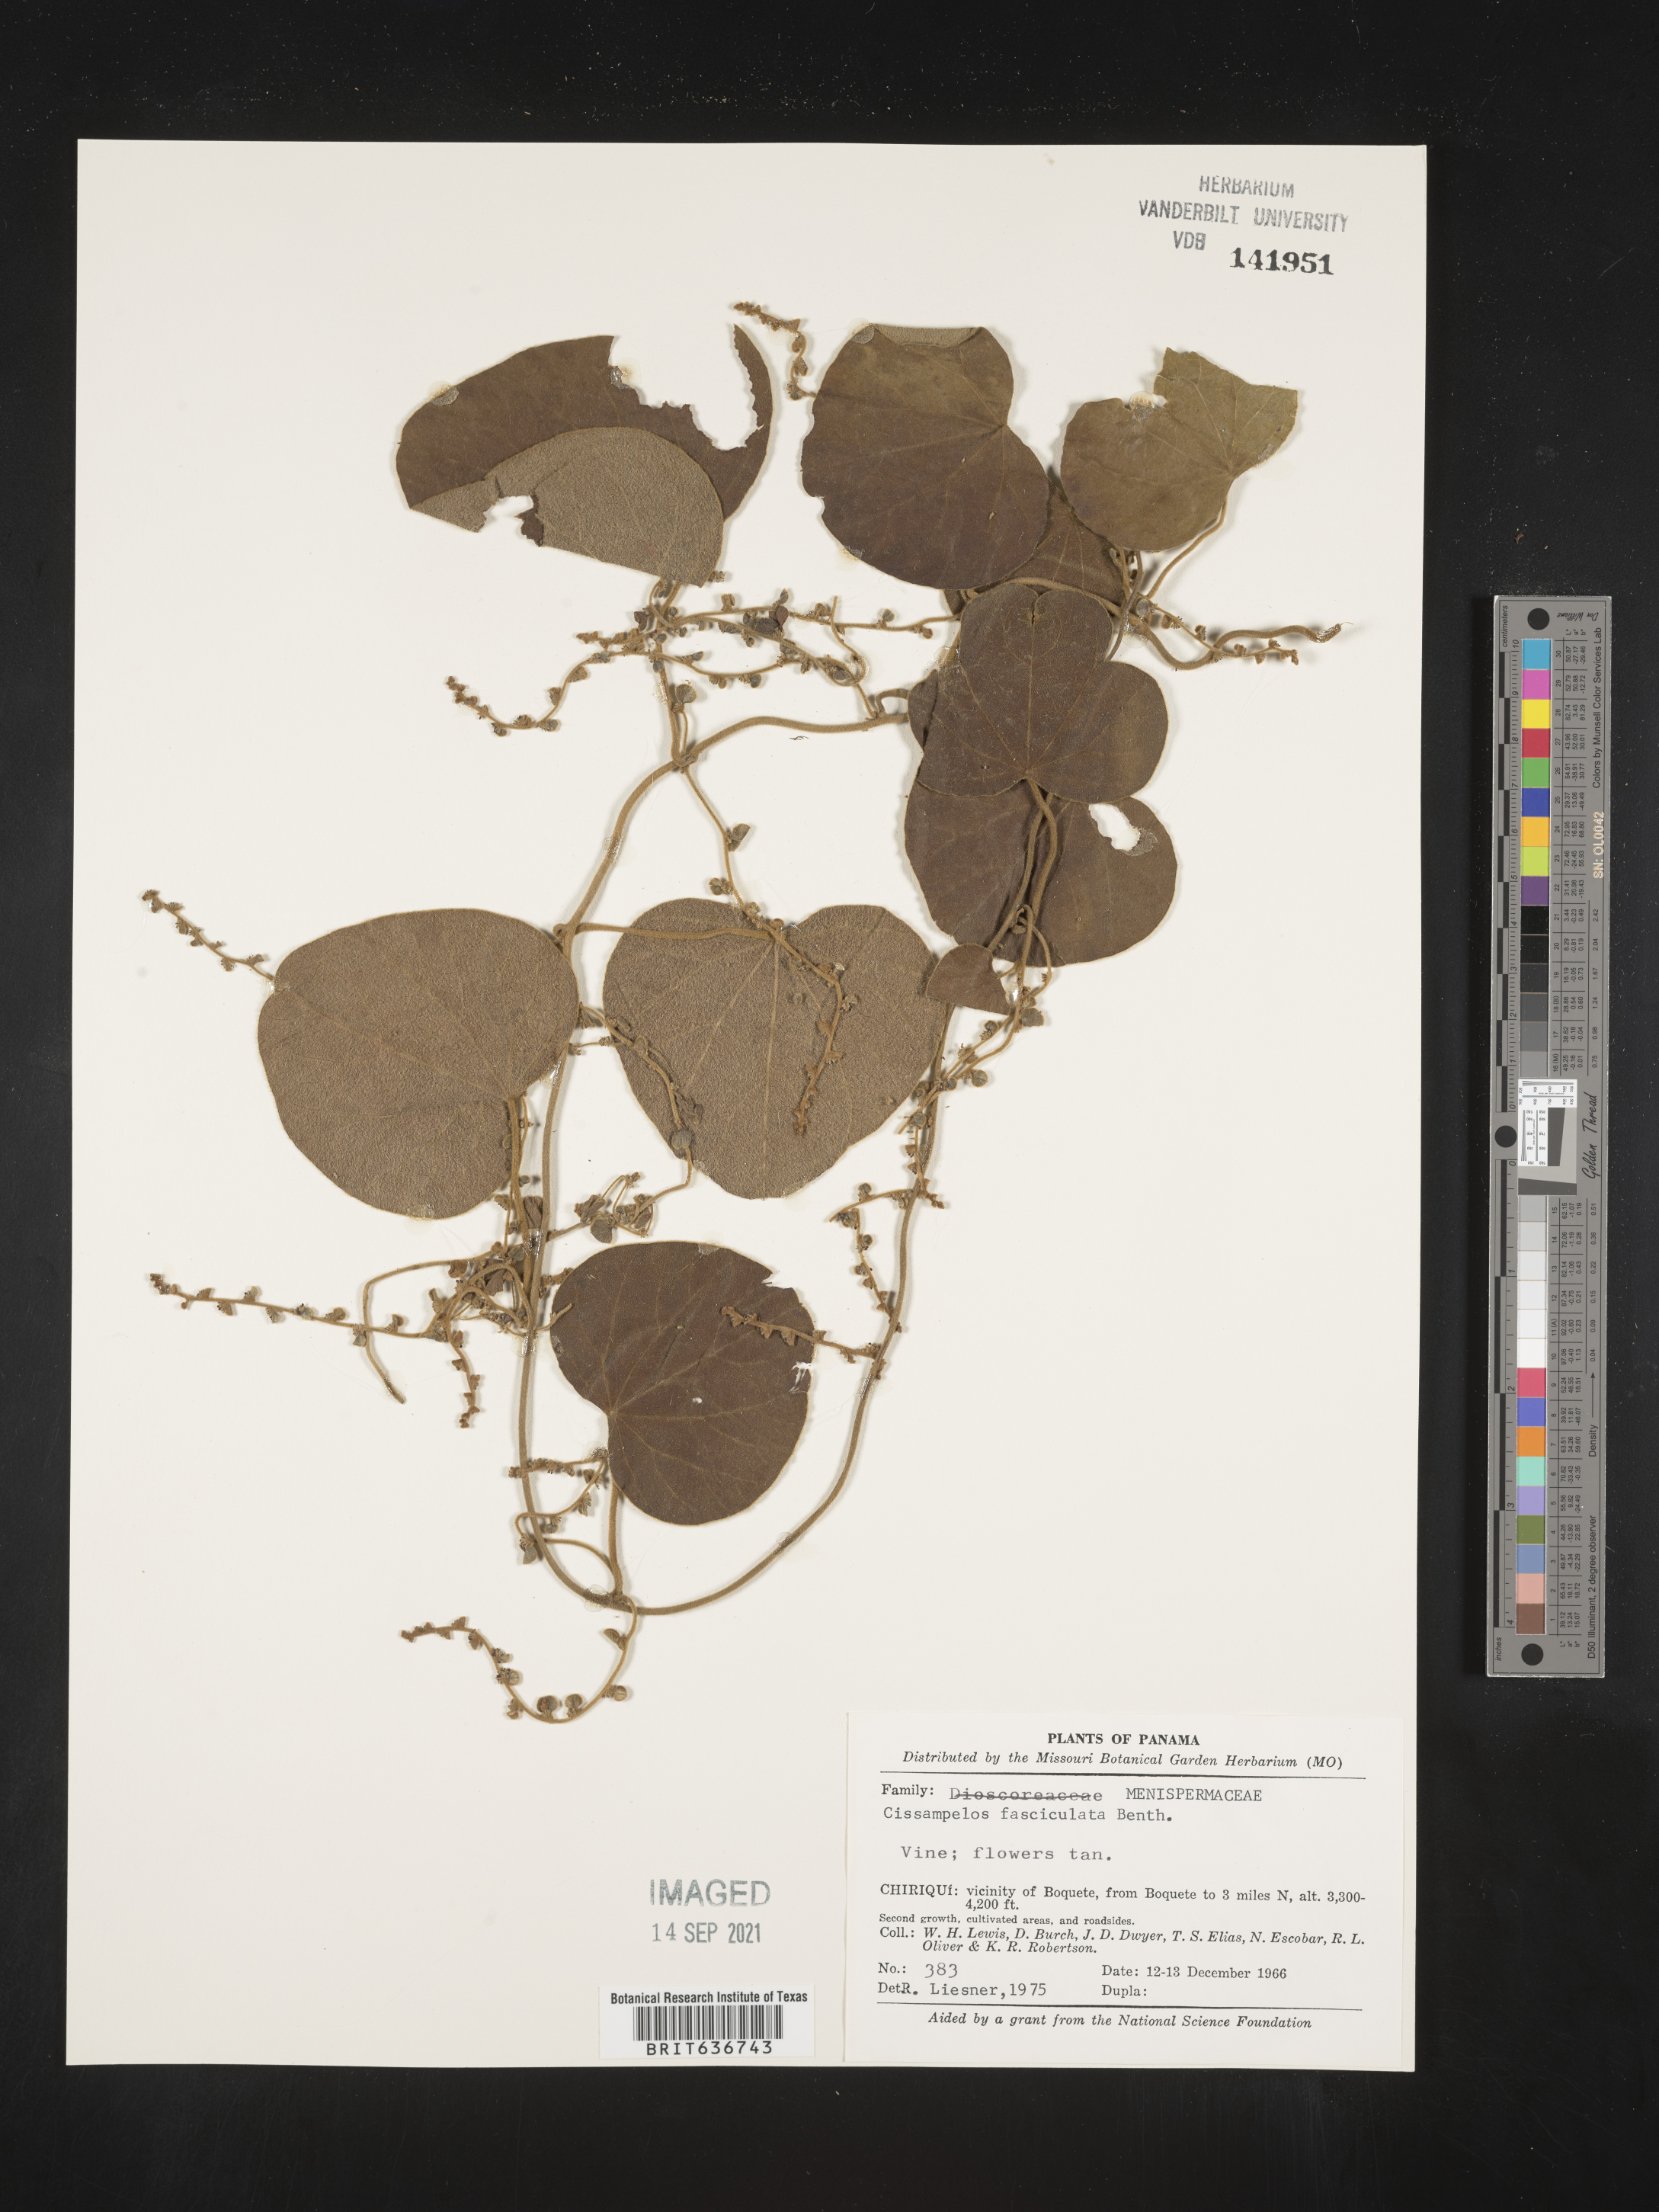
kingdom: Plantae
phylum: Tracheophyta
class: Magnoliopsida
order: Ranunculales
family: Menispermaceae
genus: Cissampelos
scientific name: Cissampelos
